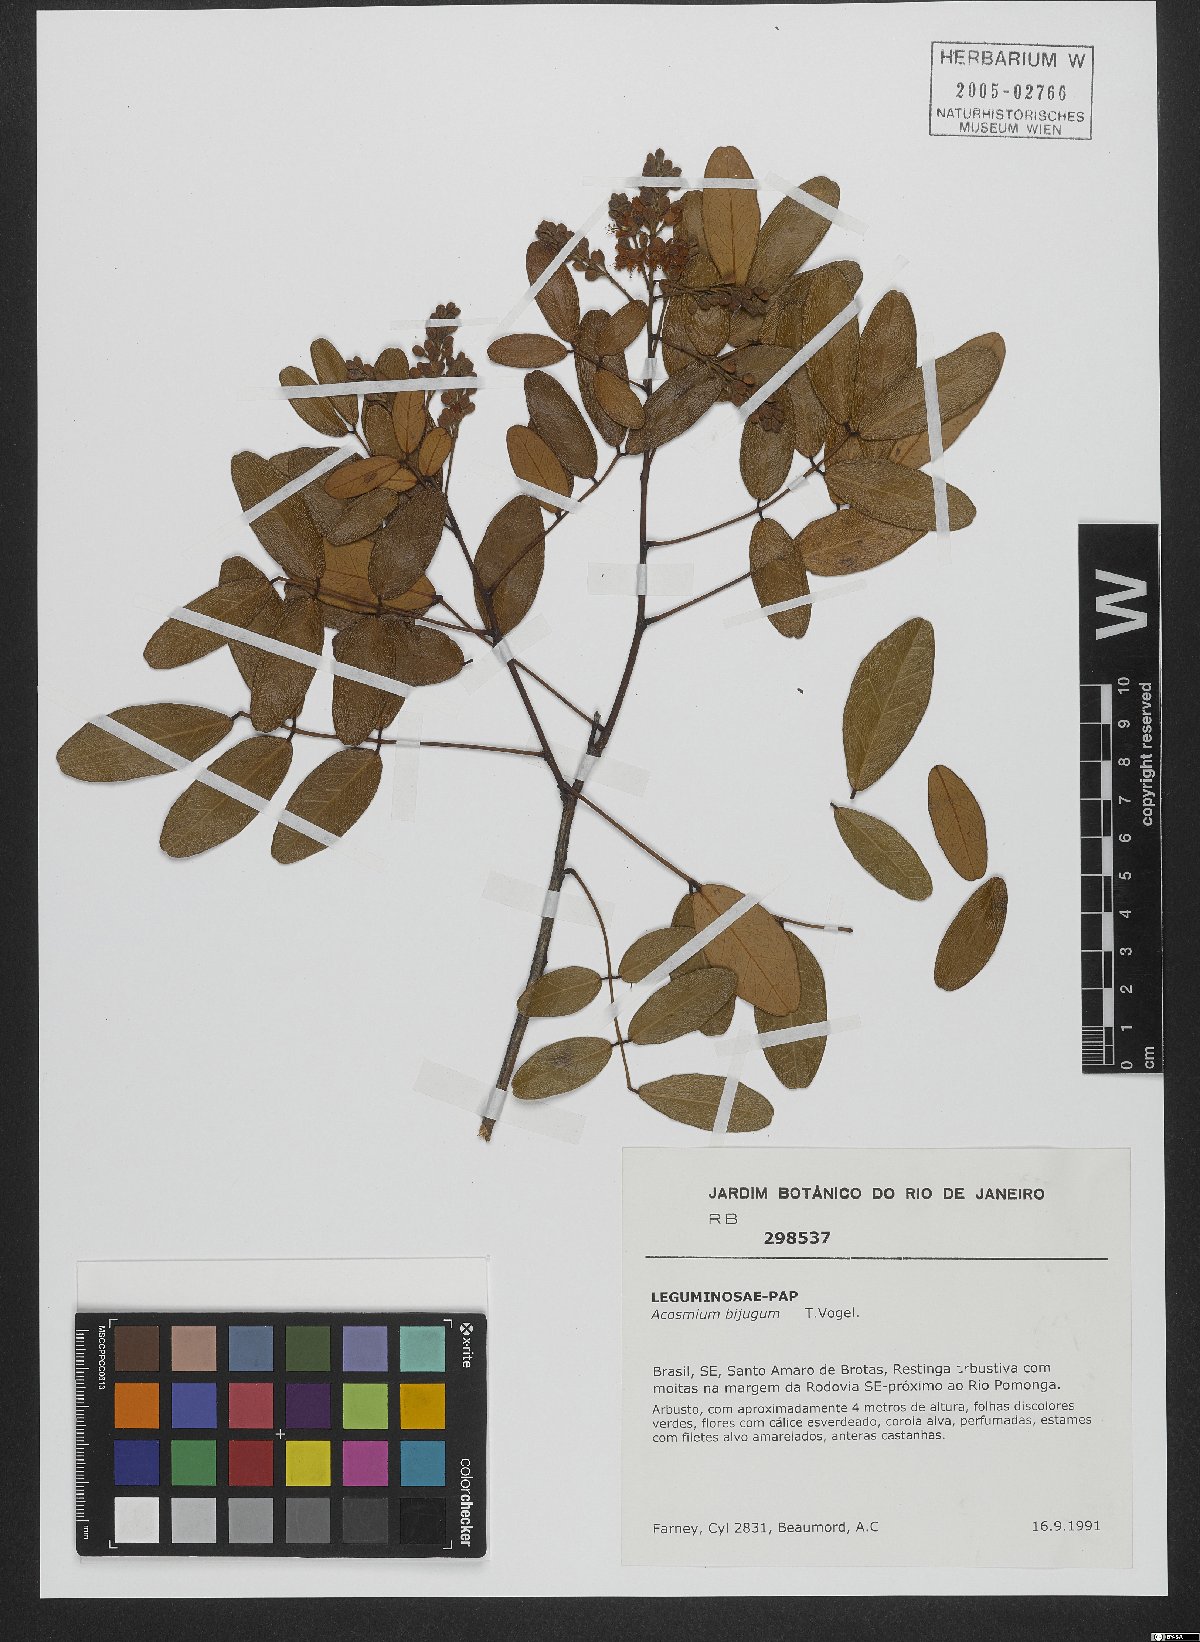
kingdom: Plantae
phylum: Tracheophyta
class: Magnoliopsida
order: Fabales
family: Fabaceae
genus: Leptolobium
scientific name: Leptolobium bijugum
